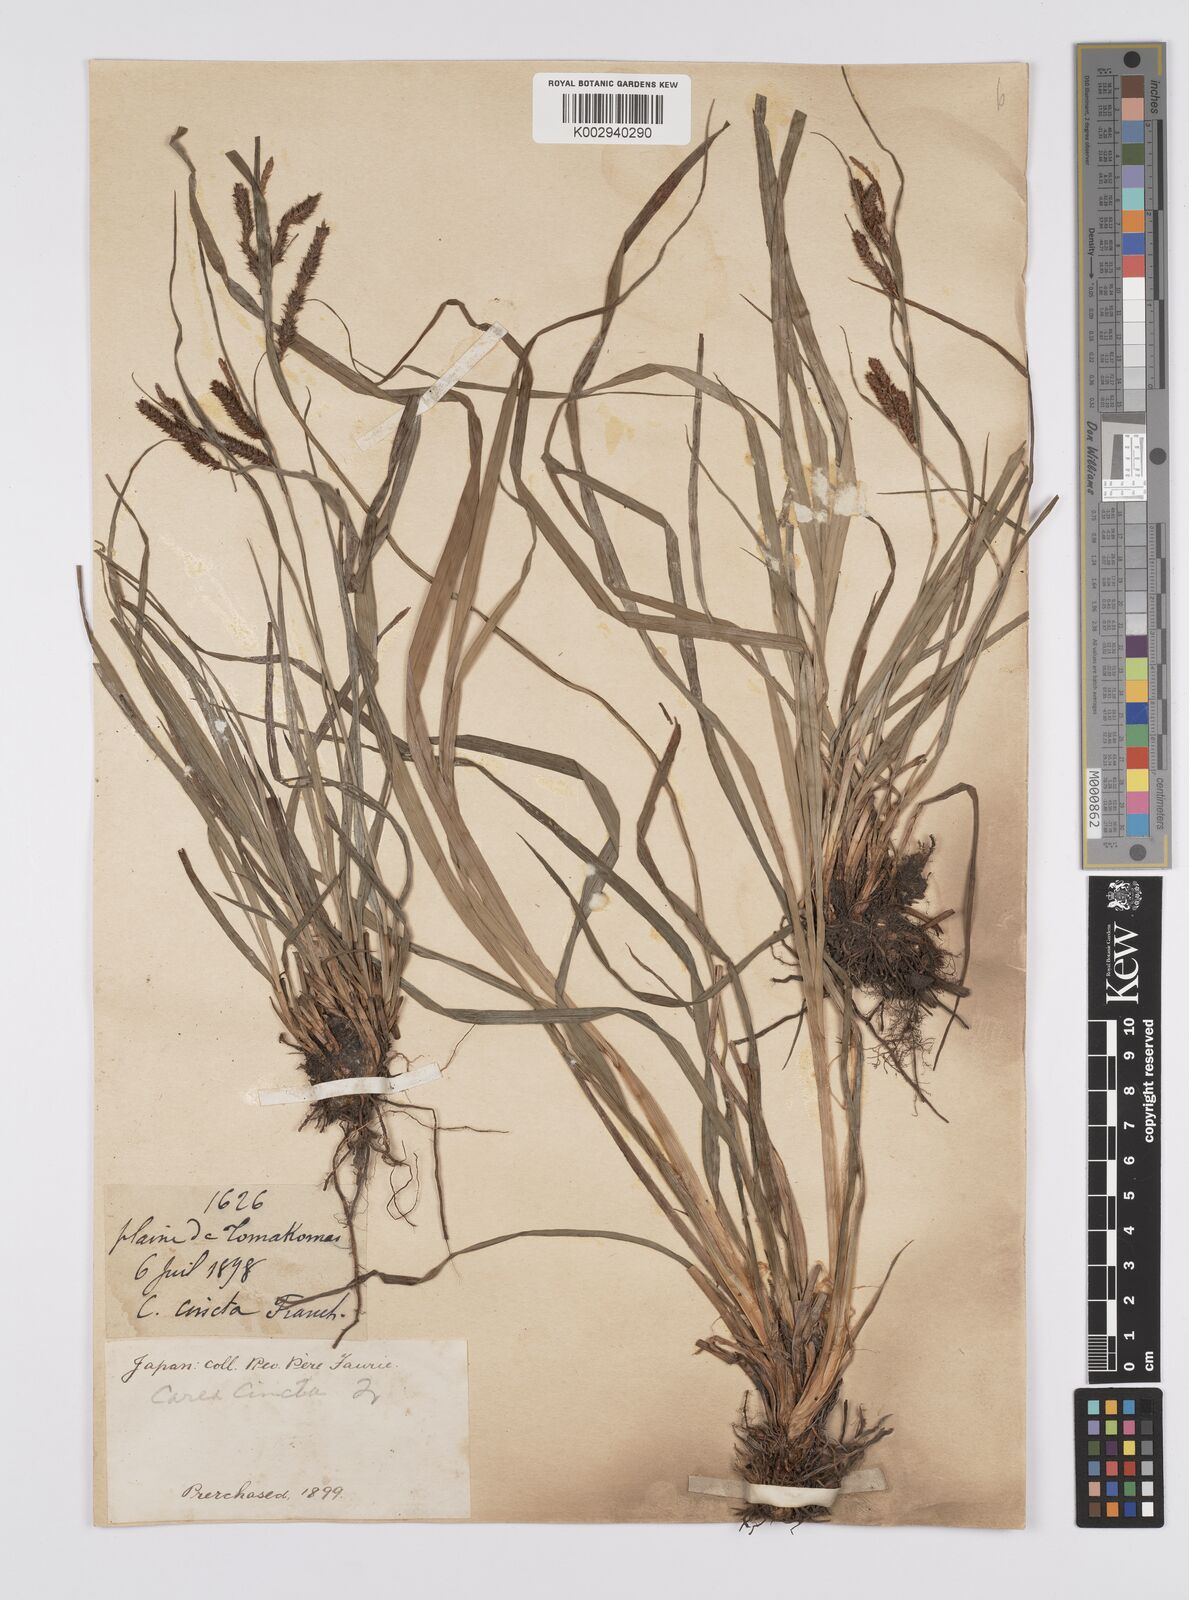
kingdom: Plantae
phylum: Tracheophyta
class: Liliopsida
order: Poales
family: Cyperaceae
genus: Carex
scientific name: Carex phacota
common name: Lakeshore sedge
